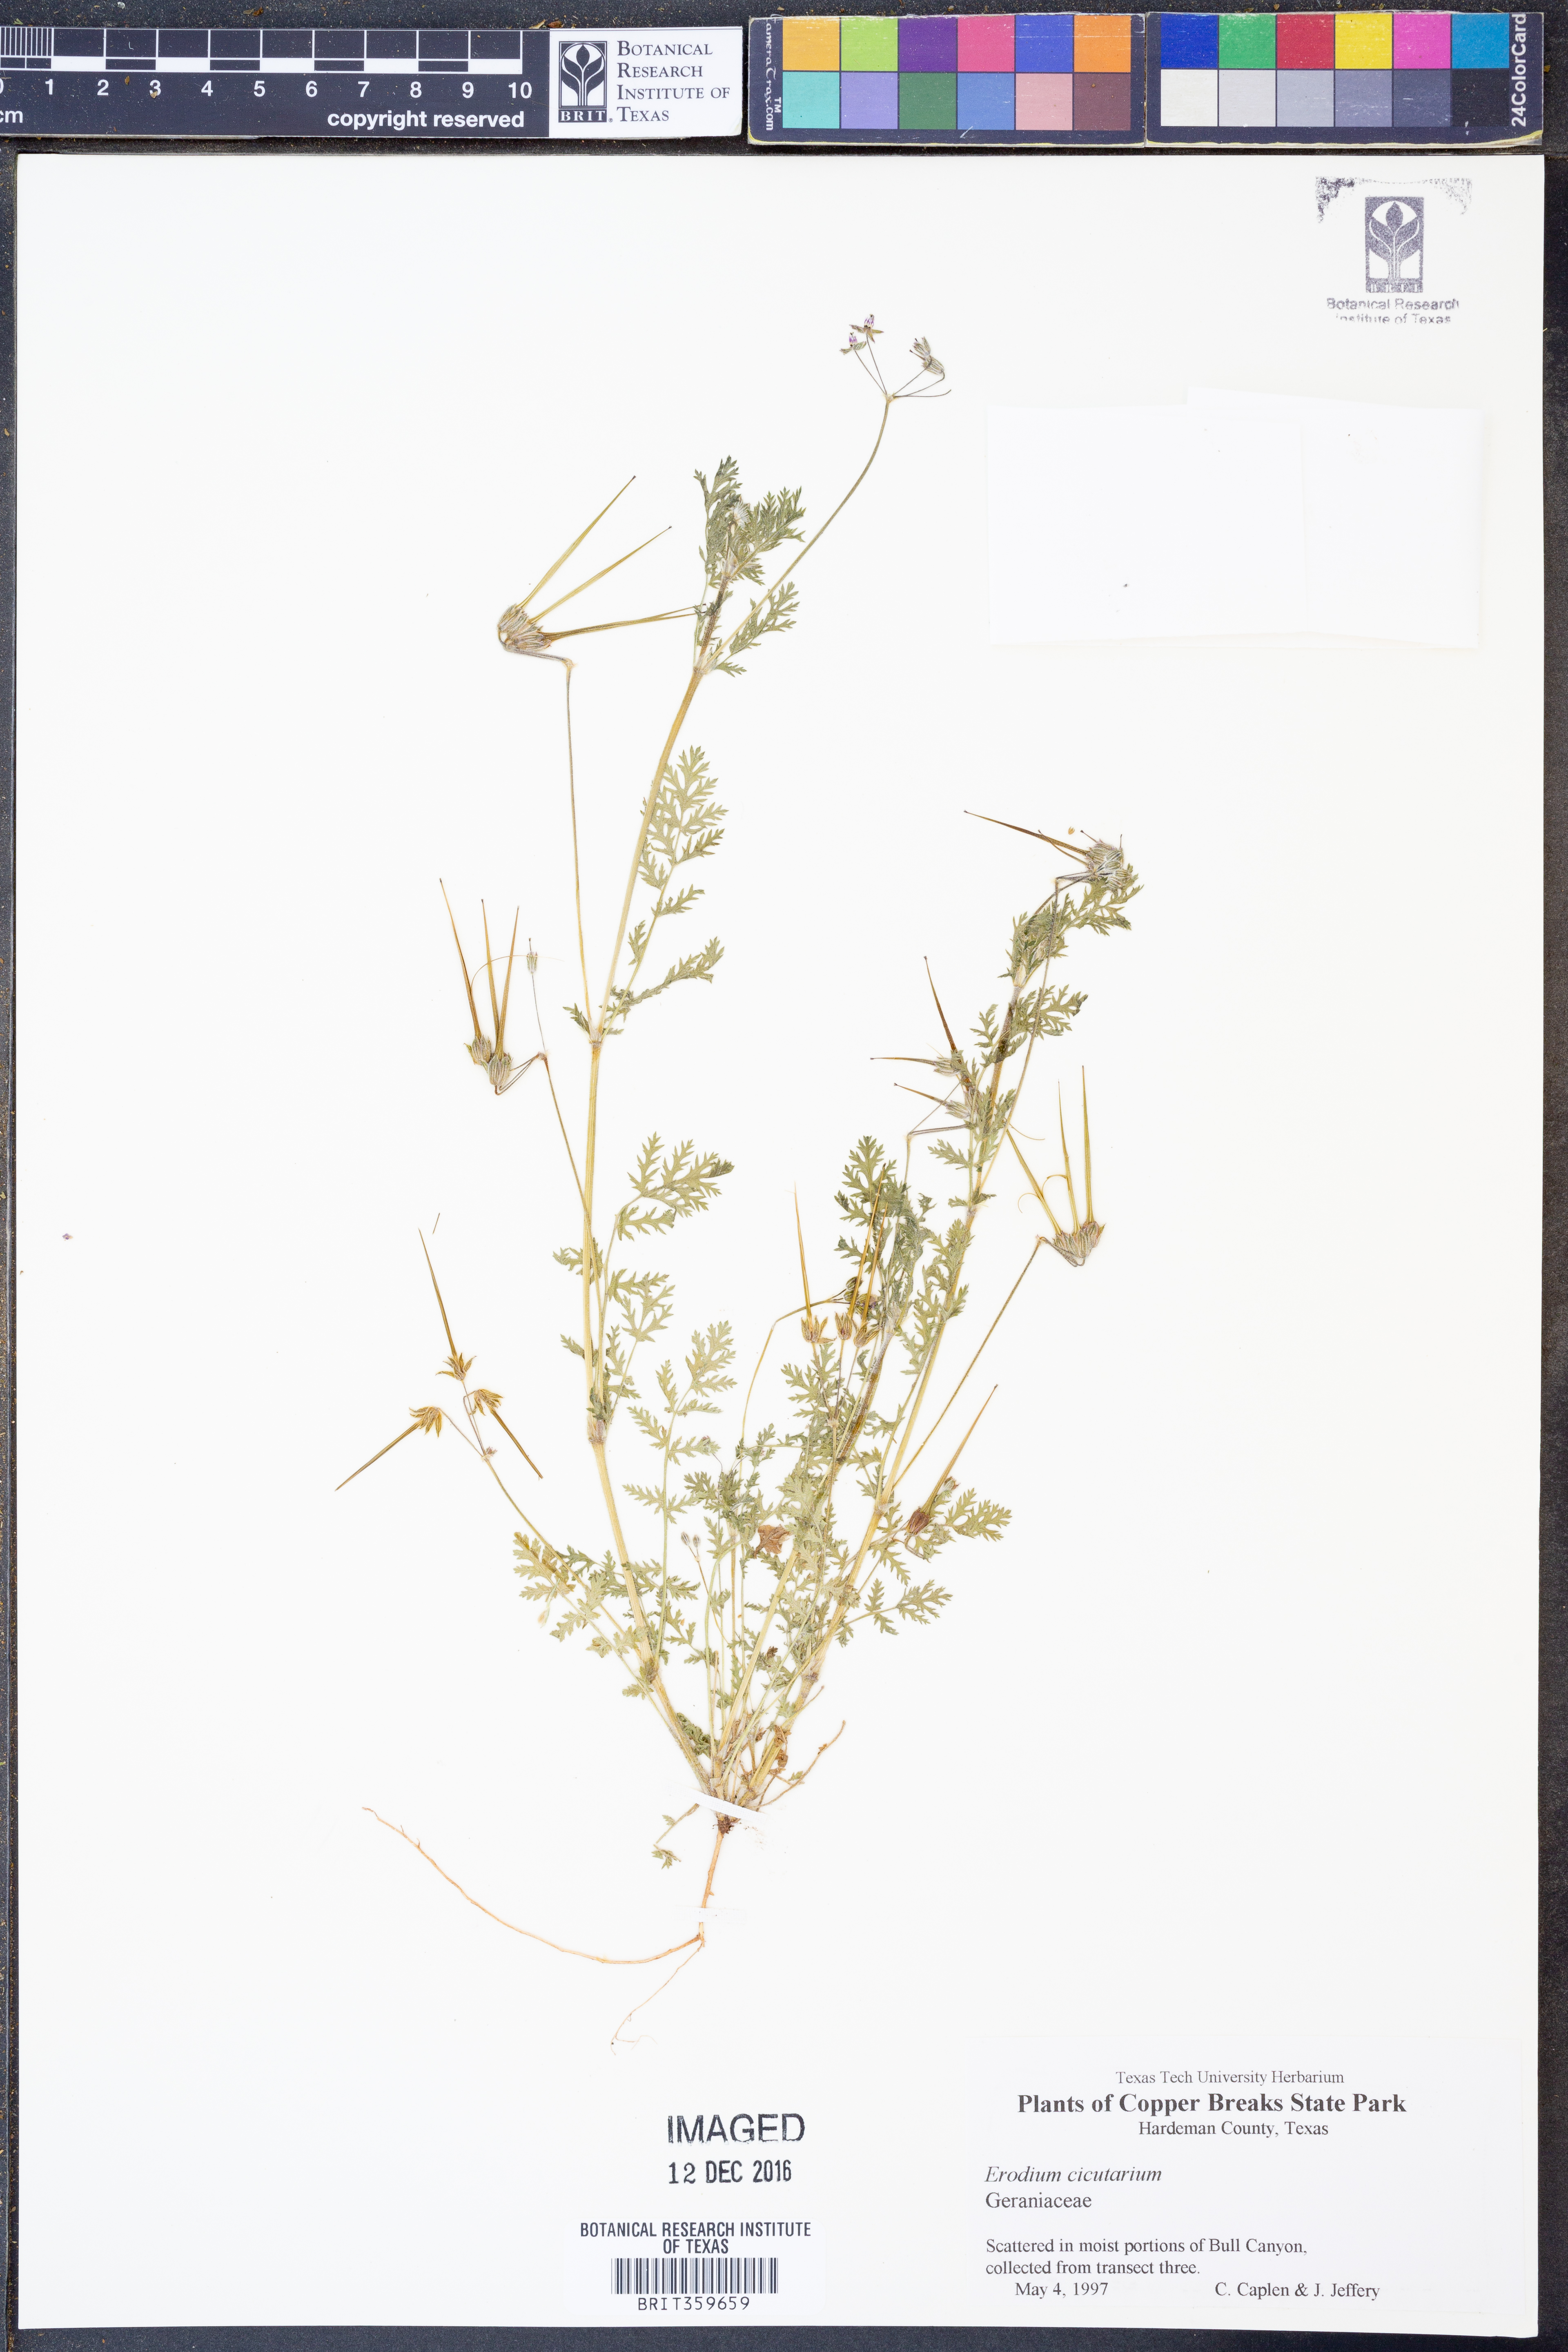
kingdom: Plantae
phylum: Tracheophyta
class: Magnoliopsida
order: Geraniales
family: Geraniaceae
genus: Erodium
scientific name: Erodium cicutarium
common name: Common stork's-bill
